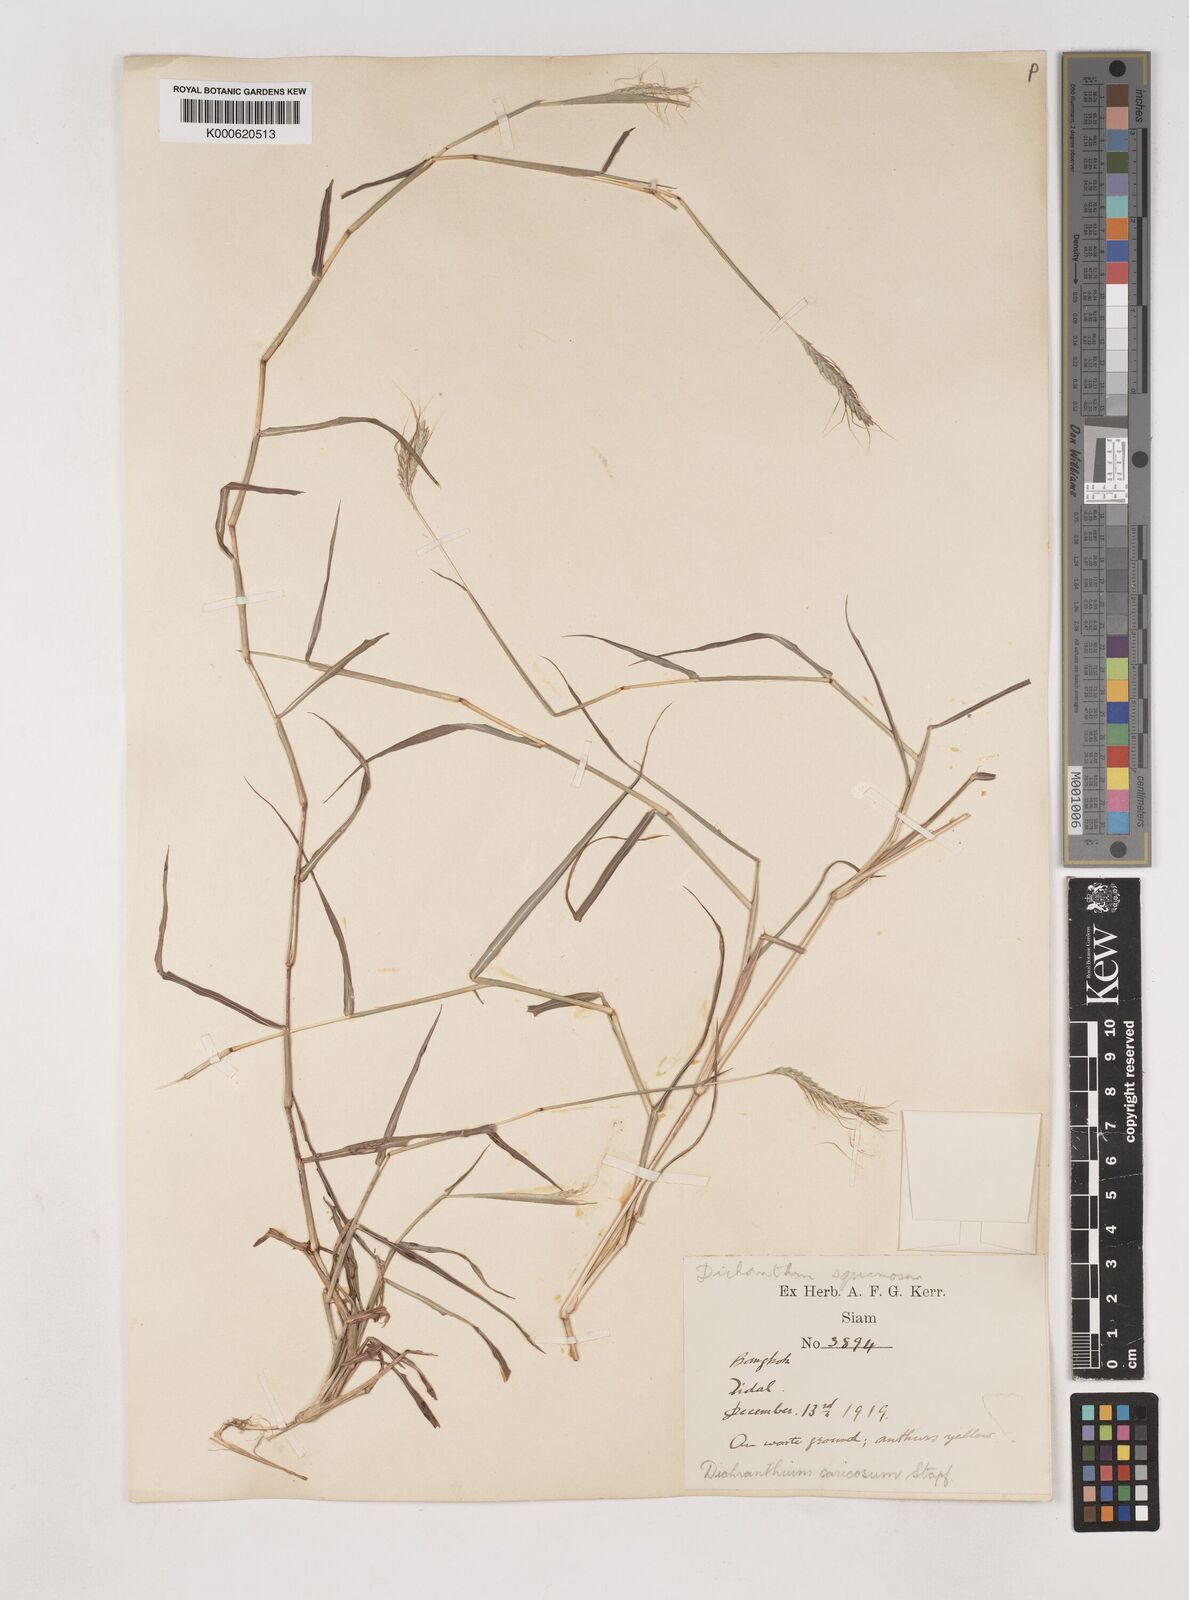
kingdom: Plantae
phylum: Tracheophyta
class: Liliopsida
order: Poales
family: Poaceae
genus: Dichanthium
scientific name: Dichanthium caricosum
